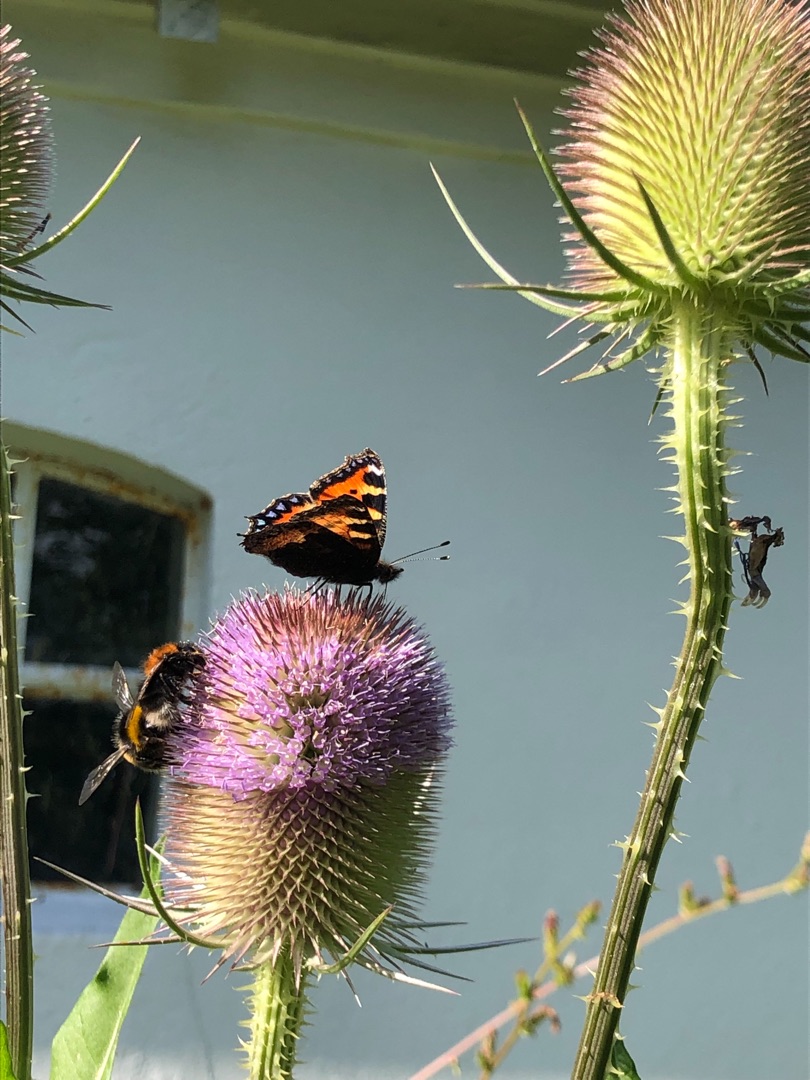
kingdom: Animalia
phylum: Arthropoda
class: Insecta
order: Lepidoptera
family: Nymphalidae
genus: Aglais
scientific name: Aglais urticae
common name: Nældens takvinge
